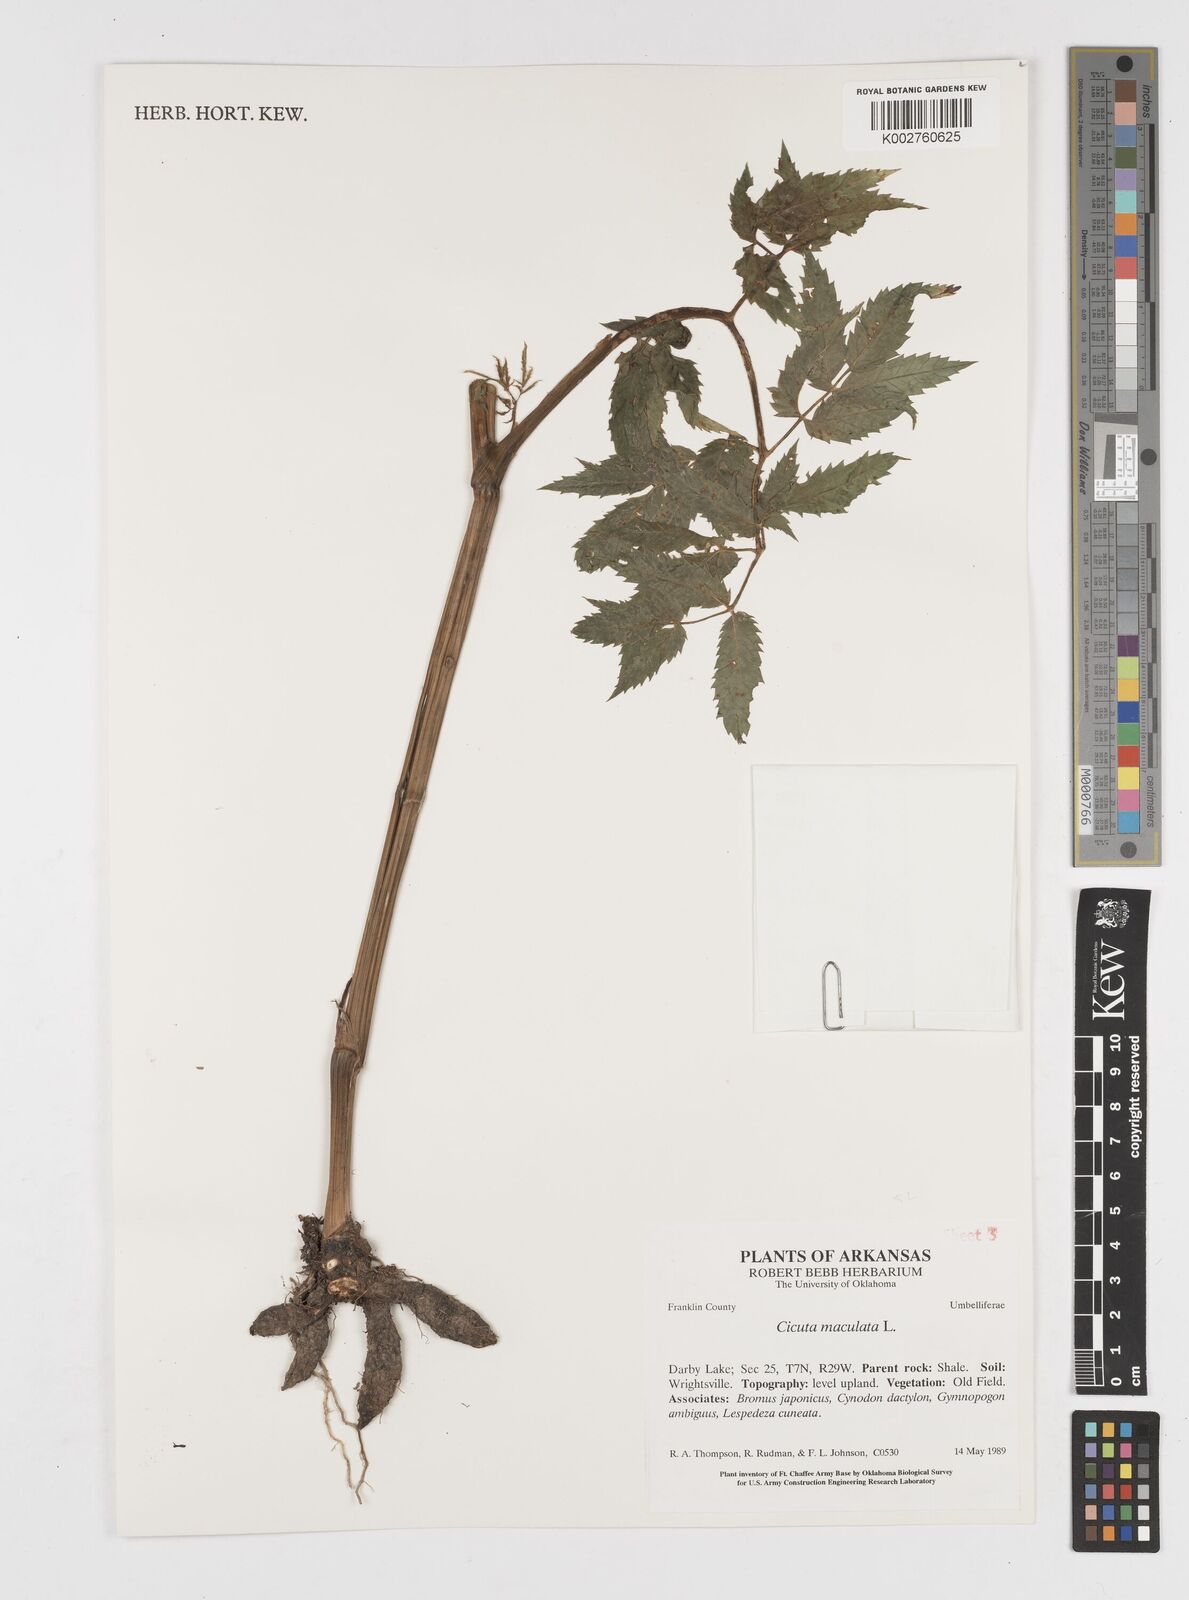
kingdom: Plantae
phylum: Tracheophyta
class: Magnoliopsida
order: Apiales
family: Apiaceae
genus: Cicuta
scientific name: Cicuta maculata
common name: Spotted cowbane
